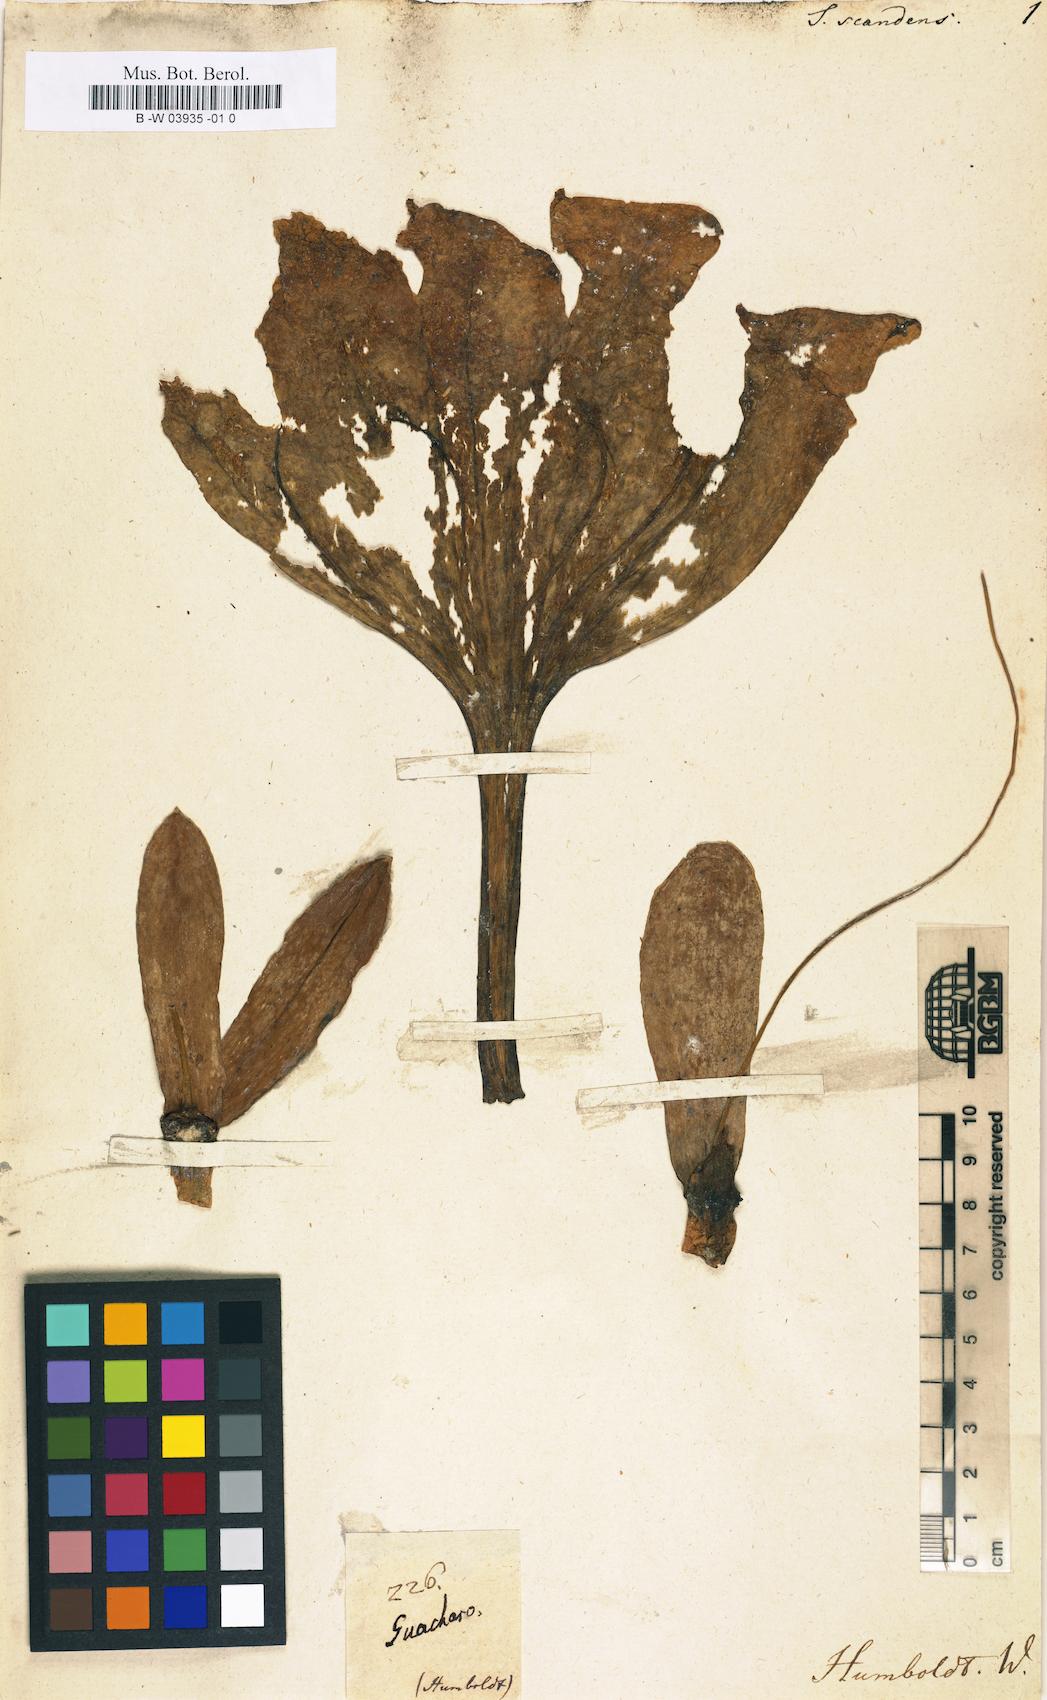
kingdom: Plantae
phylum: Tracheophyta
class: Magnoliopsida
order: Solanales
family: Solanaceae
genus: Solandra
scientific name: Solandra grandiflora
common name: Showy chalicevine
